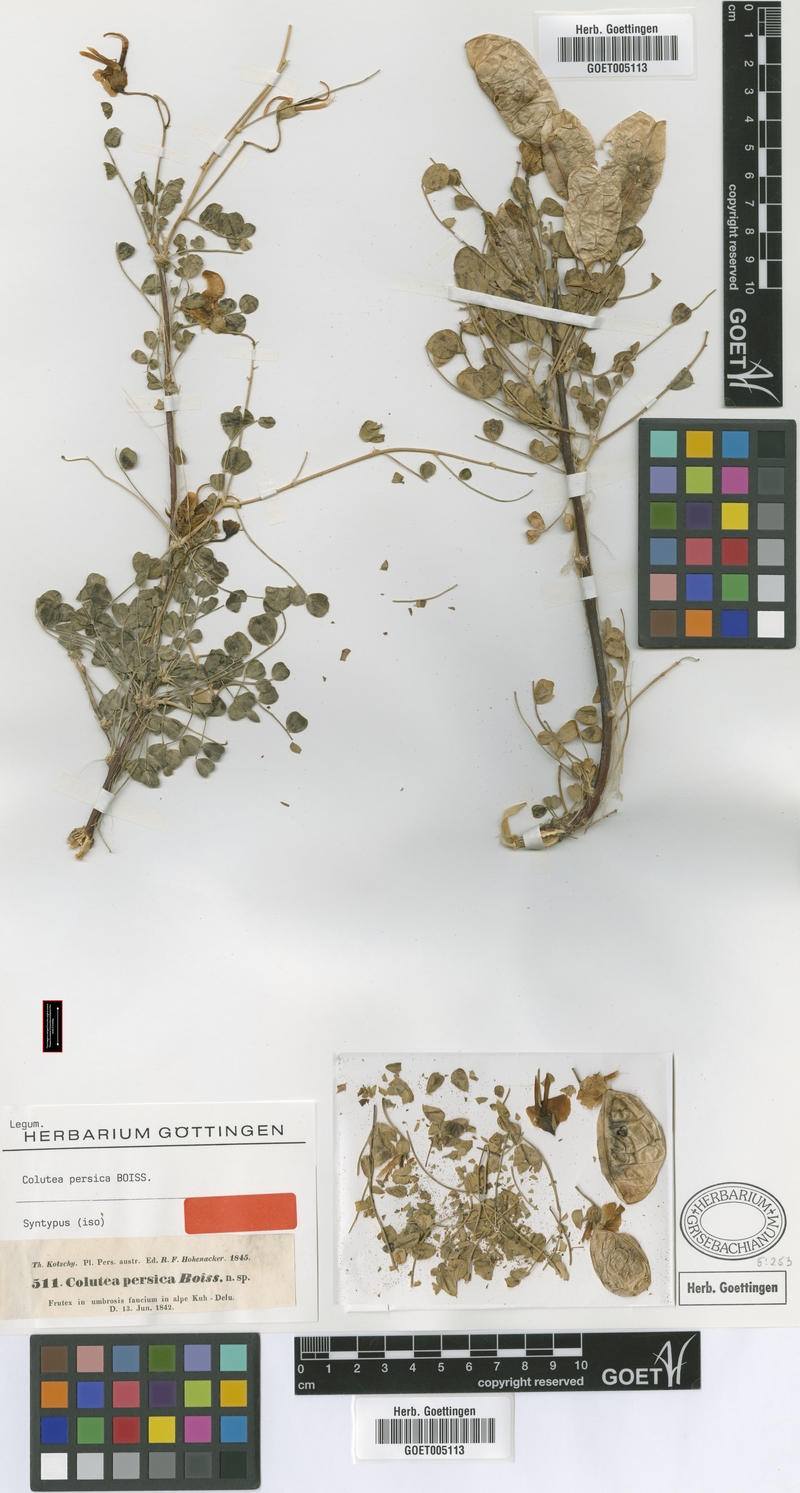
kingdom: Plantae
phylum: Tracheophyta
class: Magnoliopsida
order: Fabales
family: Fabaceae
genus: Colutea
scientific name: Colutea persica
